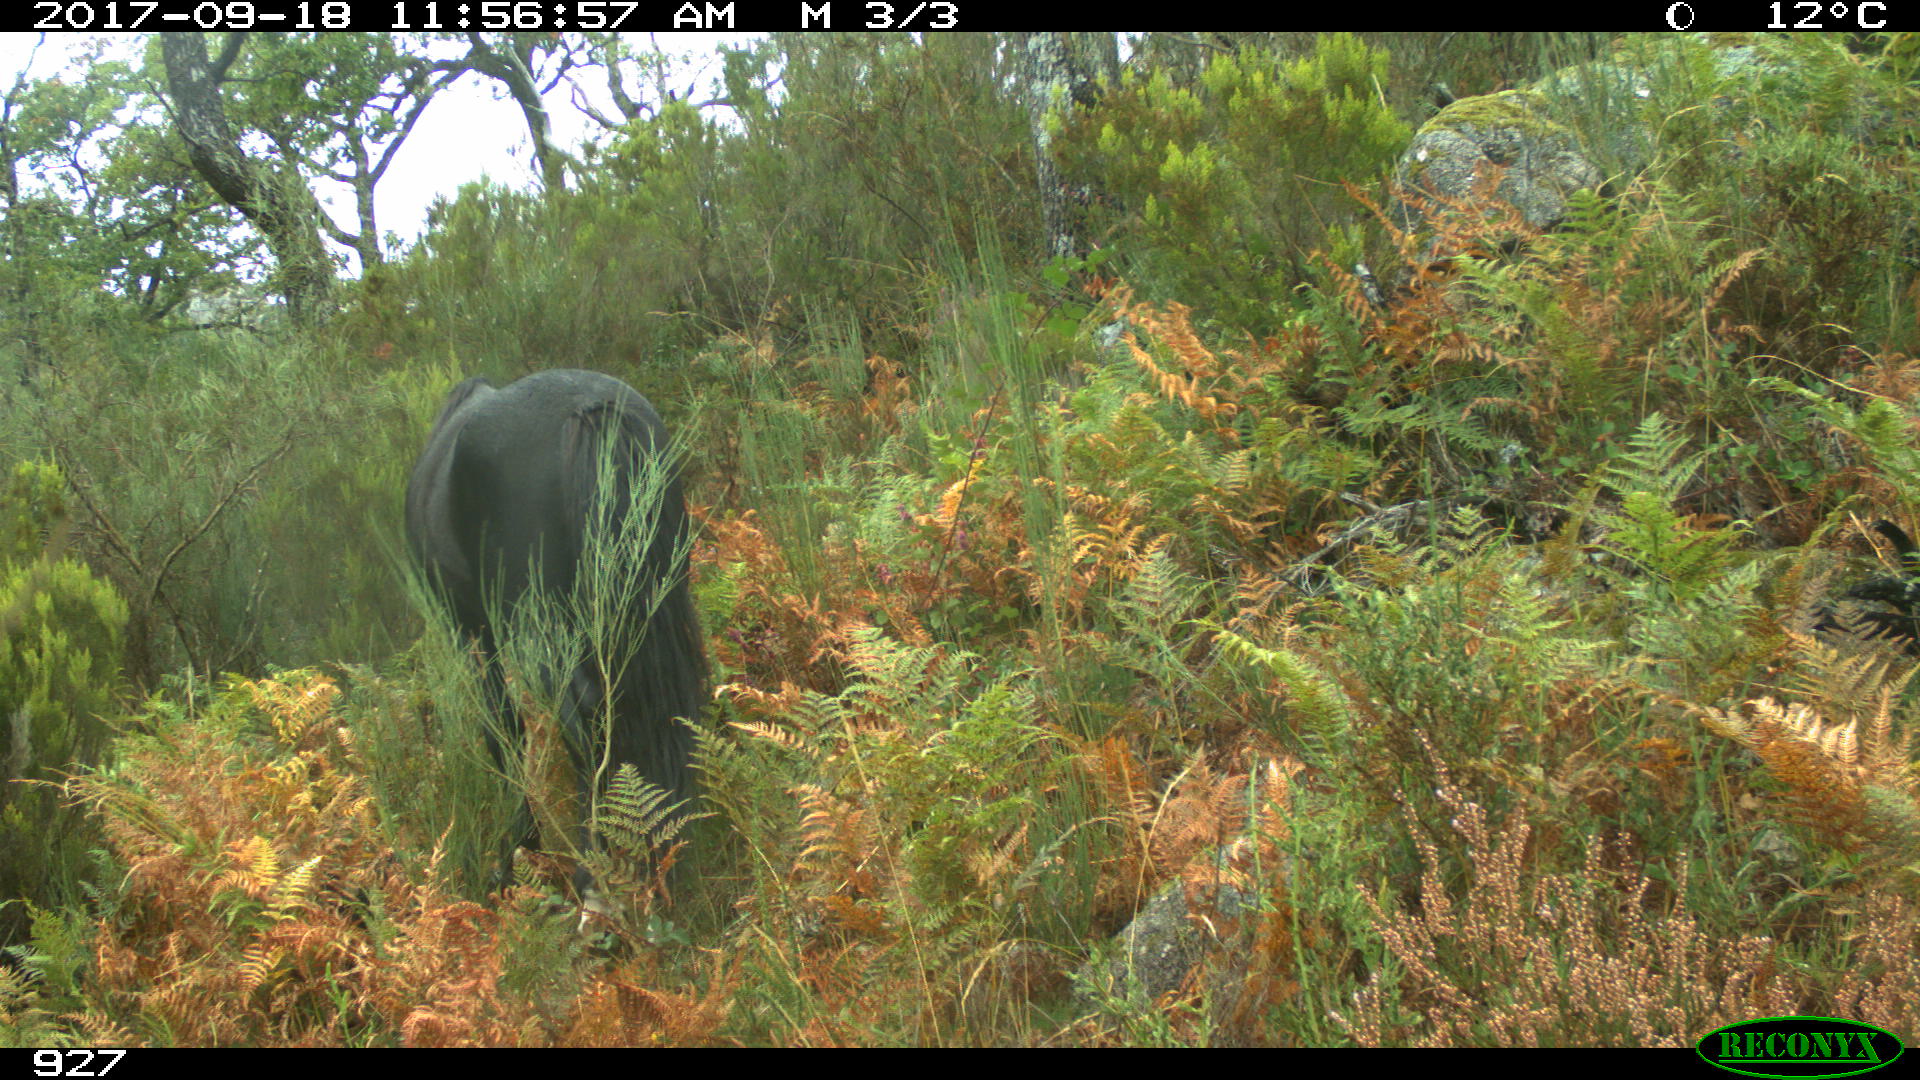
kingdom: Animalia
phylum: Chordata
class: Mammalia
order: Perissodactyla
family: Equidae
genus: Equus
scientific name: Equus caballus
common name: Horse
